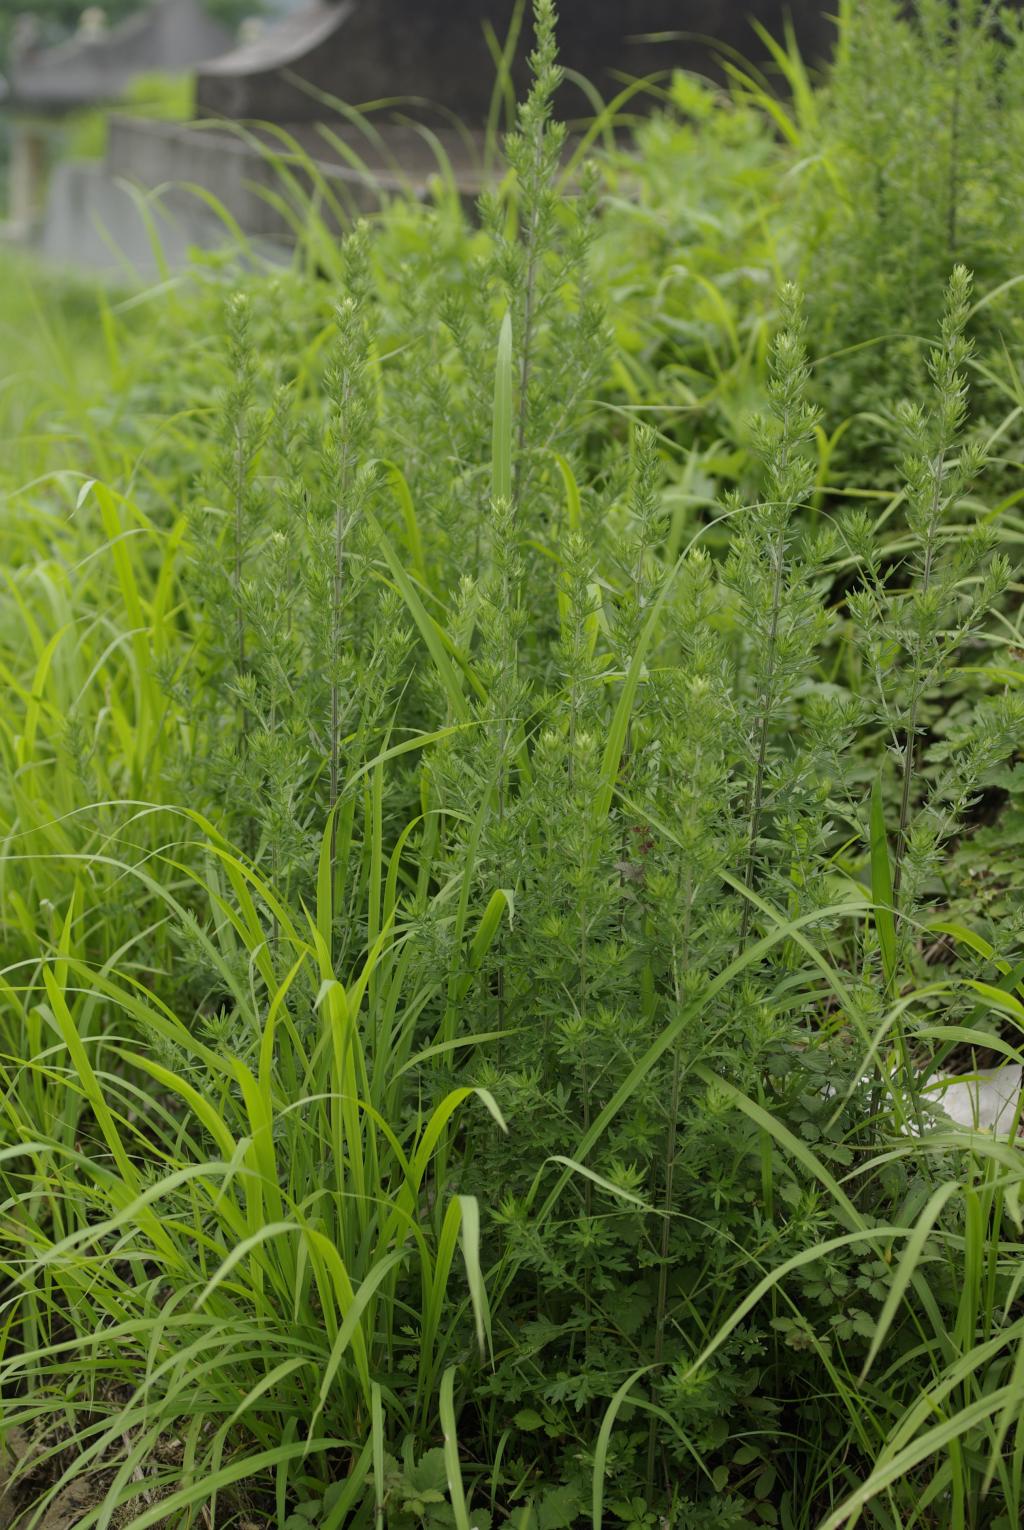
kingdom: Plantae
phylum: Tracheophyta
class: Magnoliopsida
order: Asterales
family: Asteraceae
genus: Artemisia
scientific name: Artemisia indica
